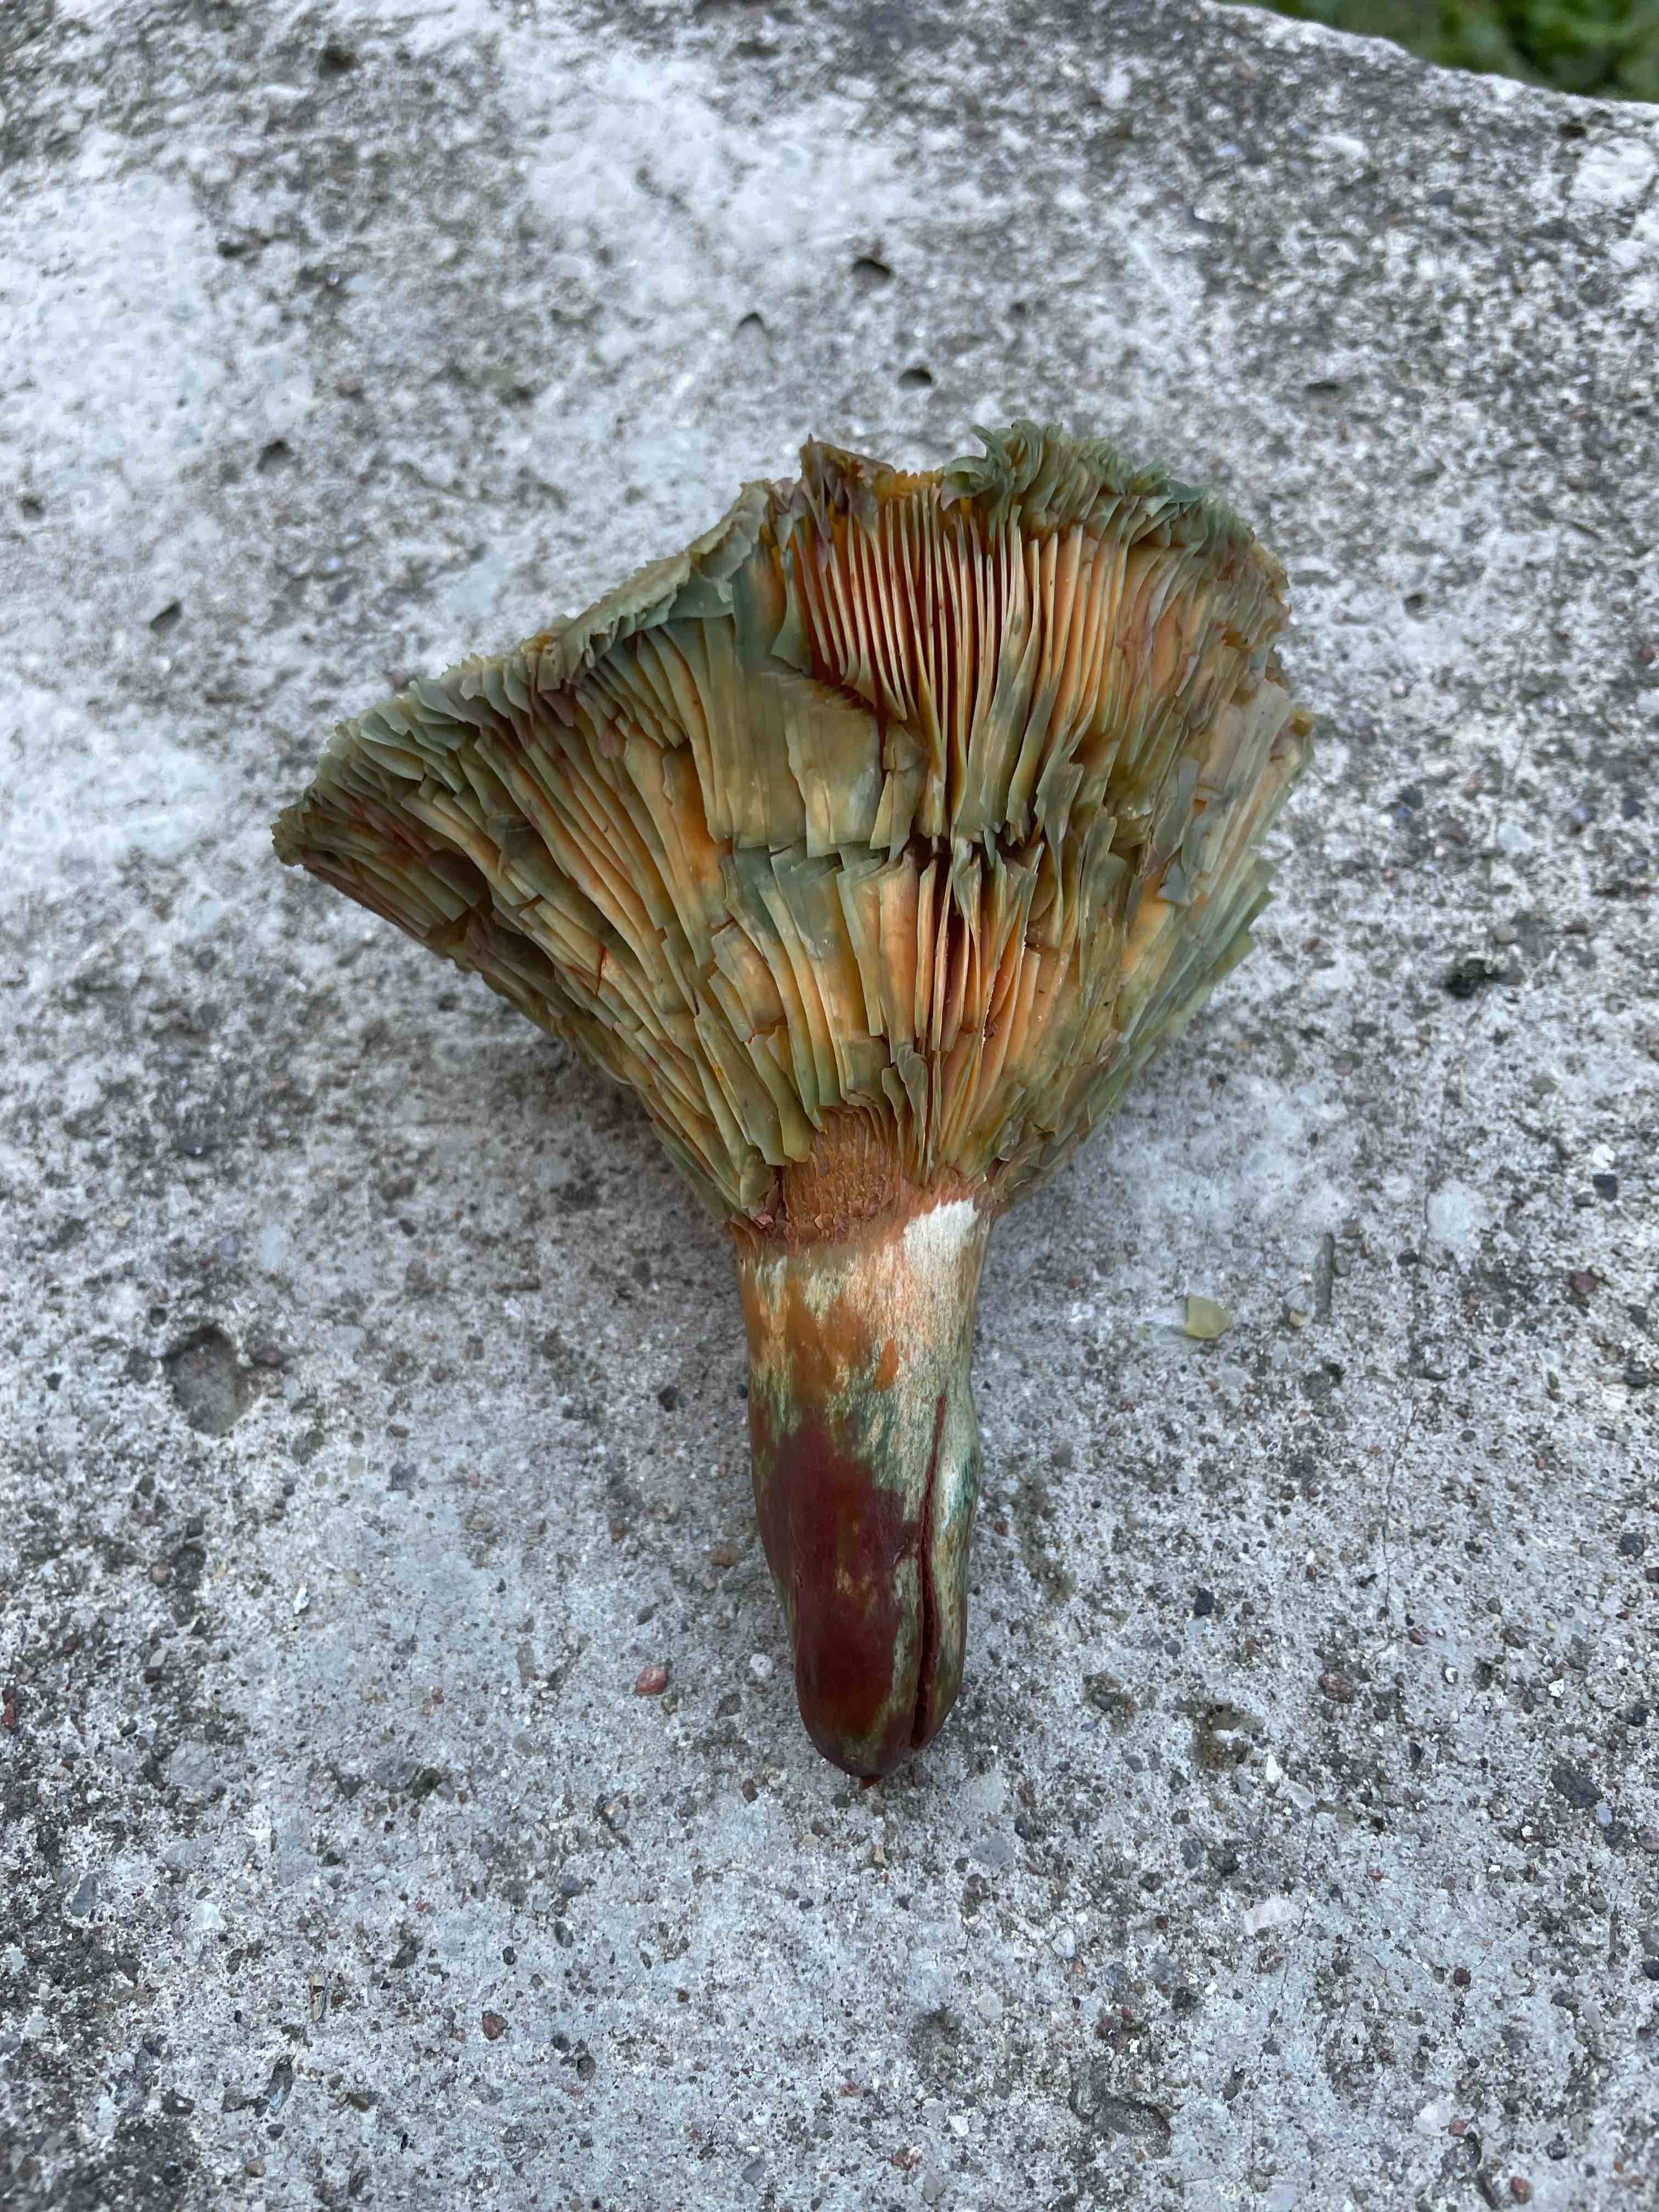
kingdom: Fungi
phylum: Basidiomycota
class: Agaricomycetes
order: Russulales
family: Russulaceae
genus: Lactarius
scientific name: Lactarius quieticolor
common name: tvefarvet mælkehat
